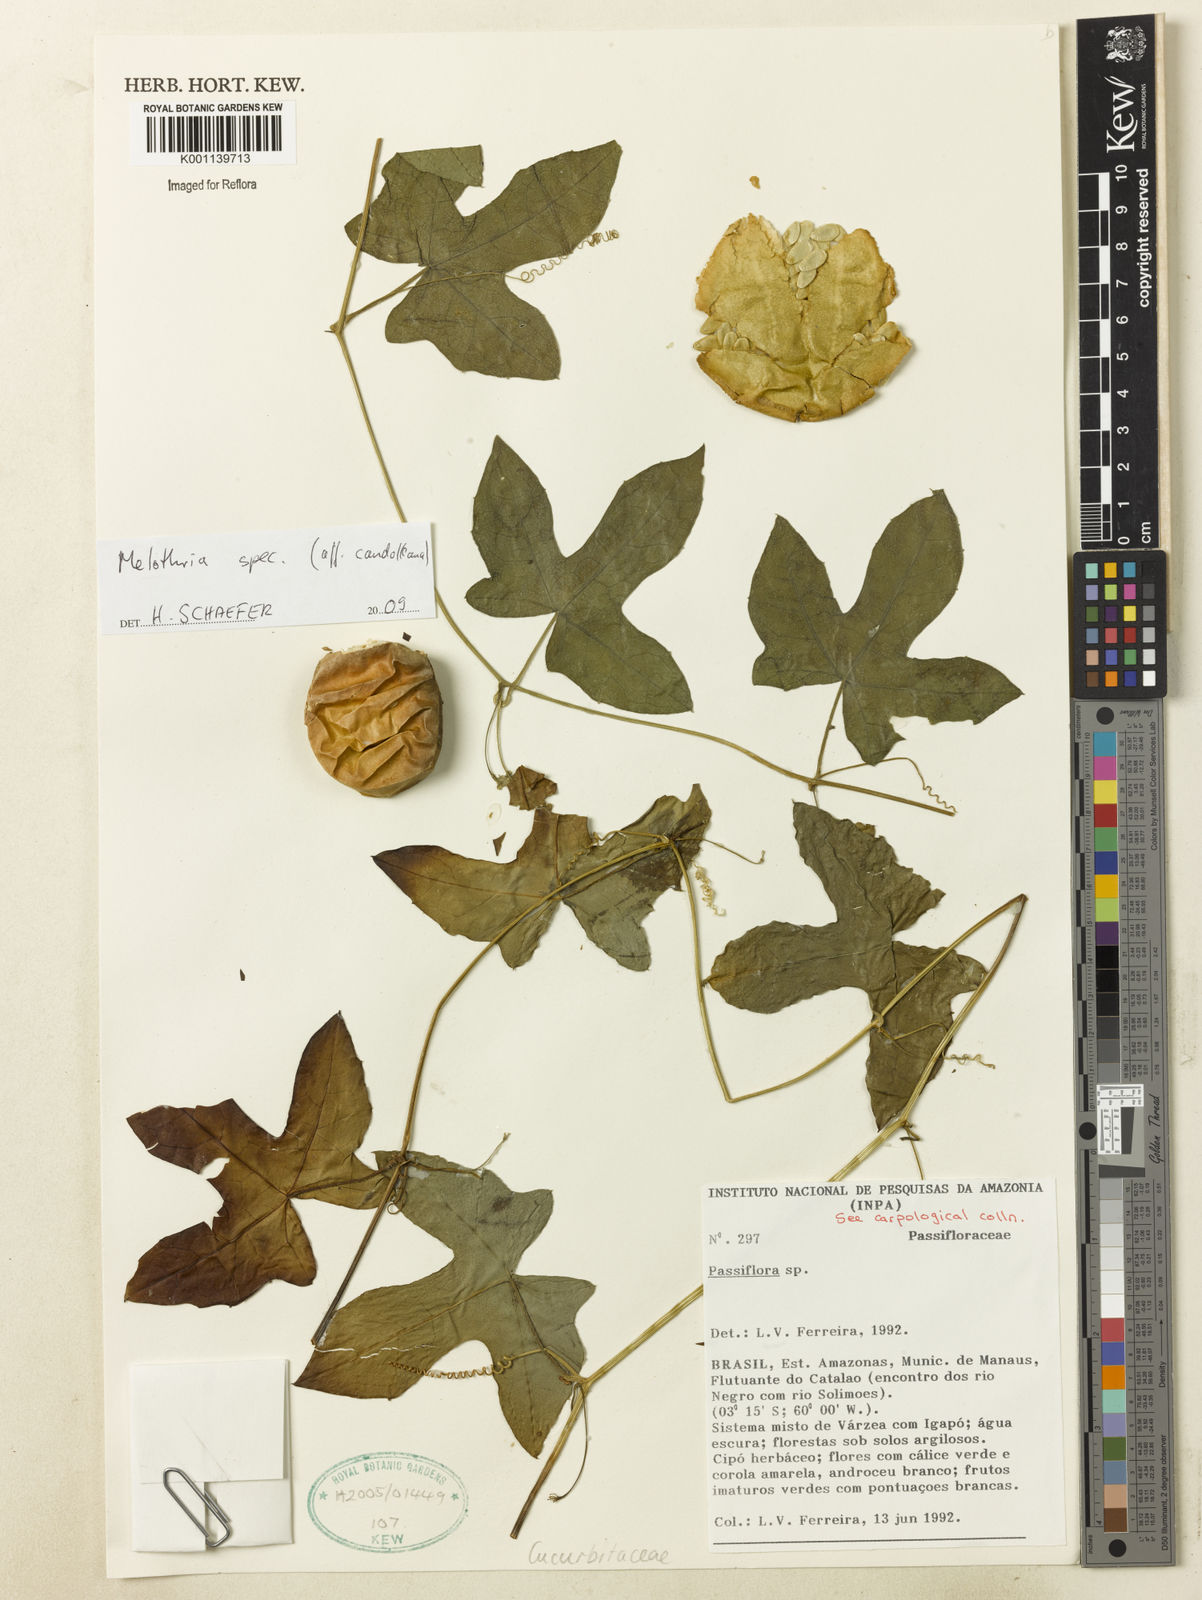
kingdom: Plantae
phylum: Tracheophyta
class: Magnoliopsida
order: Cucurbitales
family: Cucurbitaceae
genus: Melothria
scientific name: Melothria candolleana
